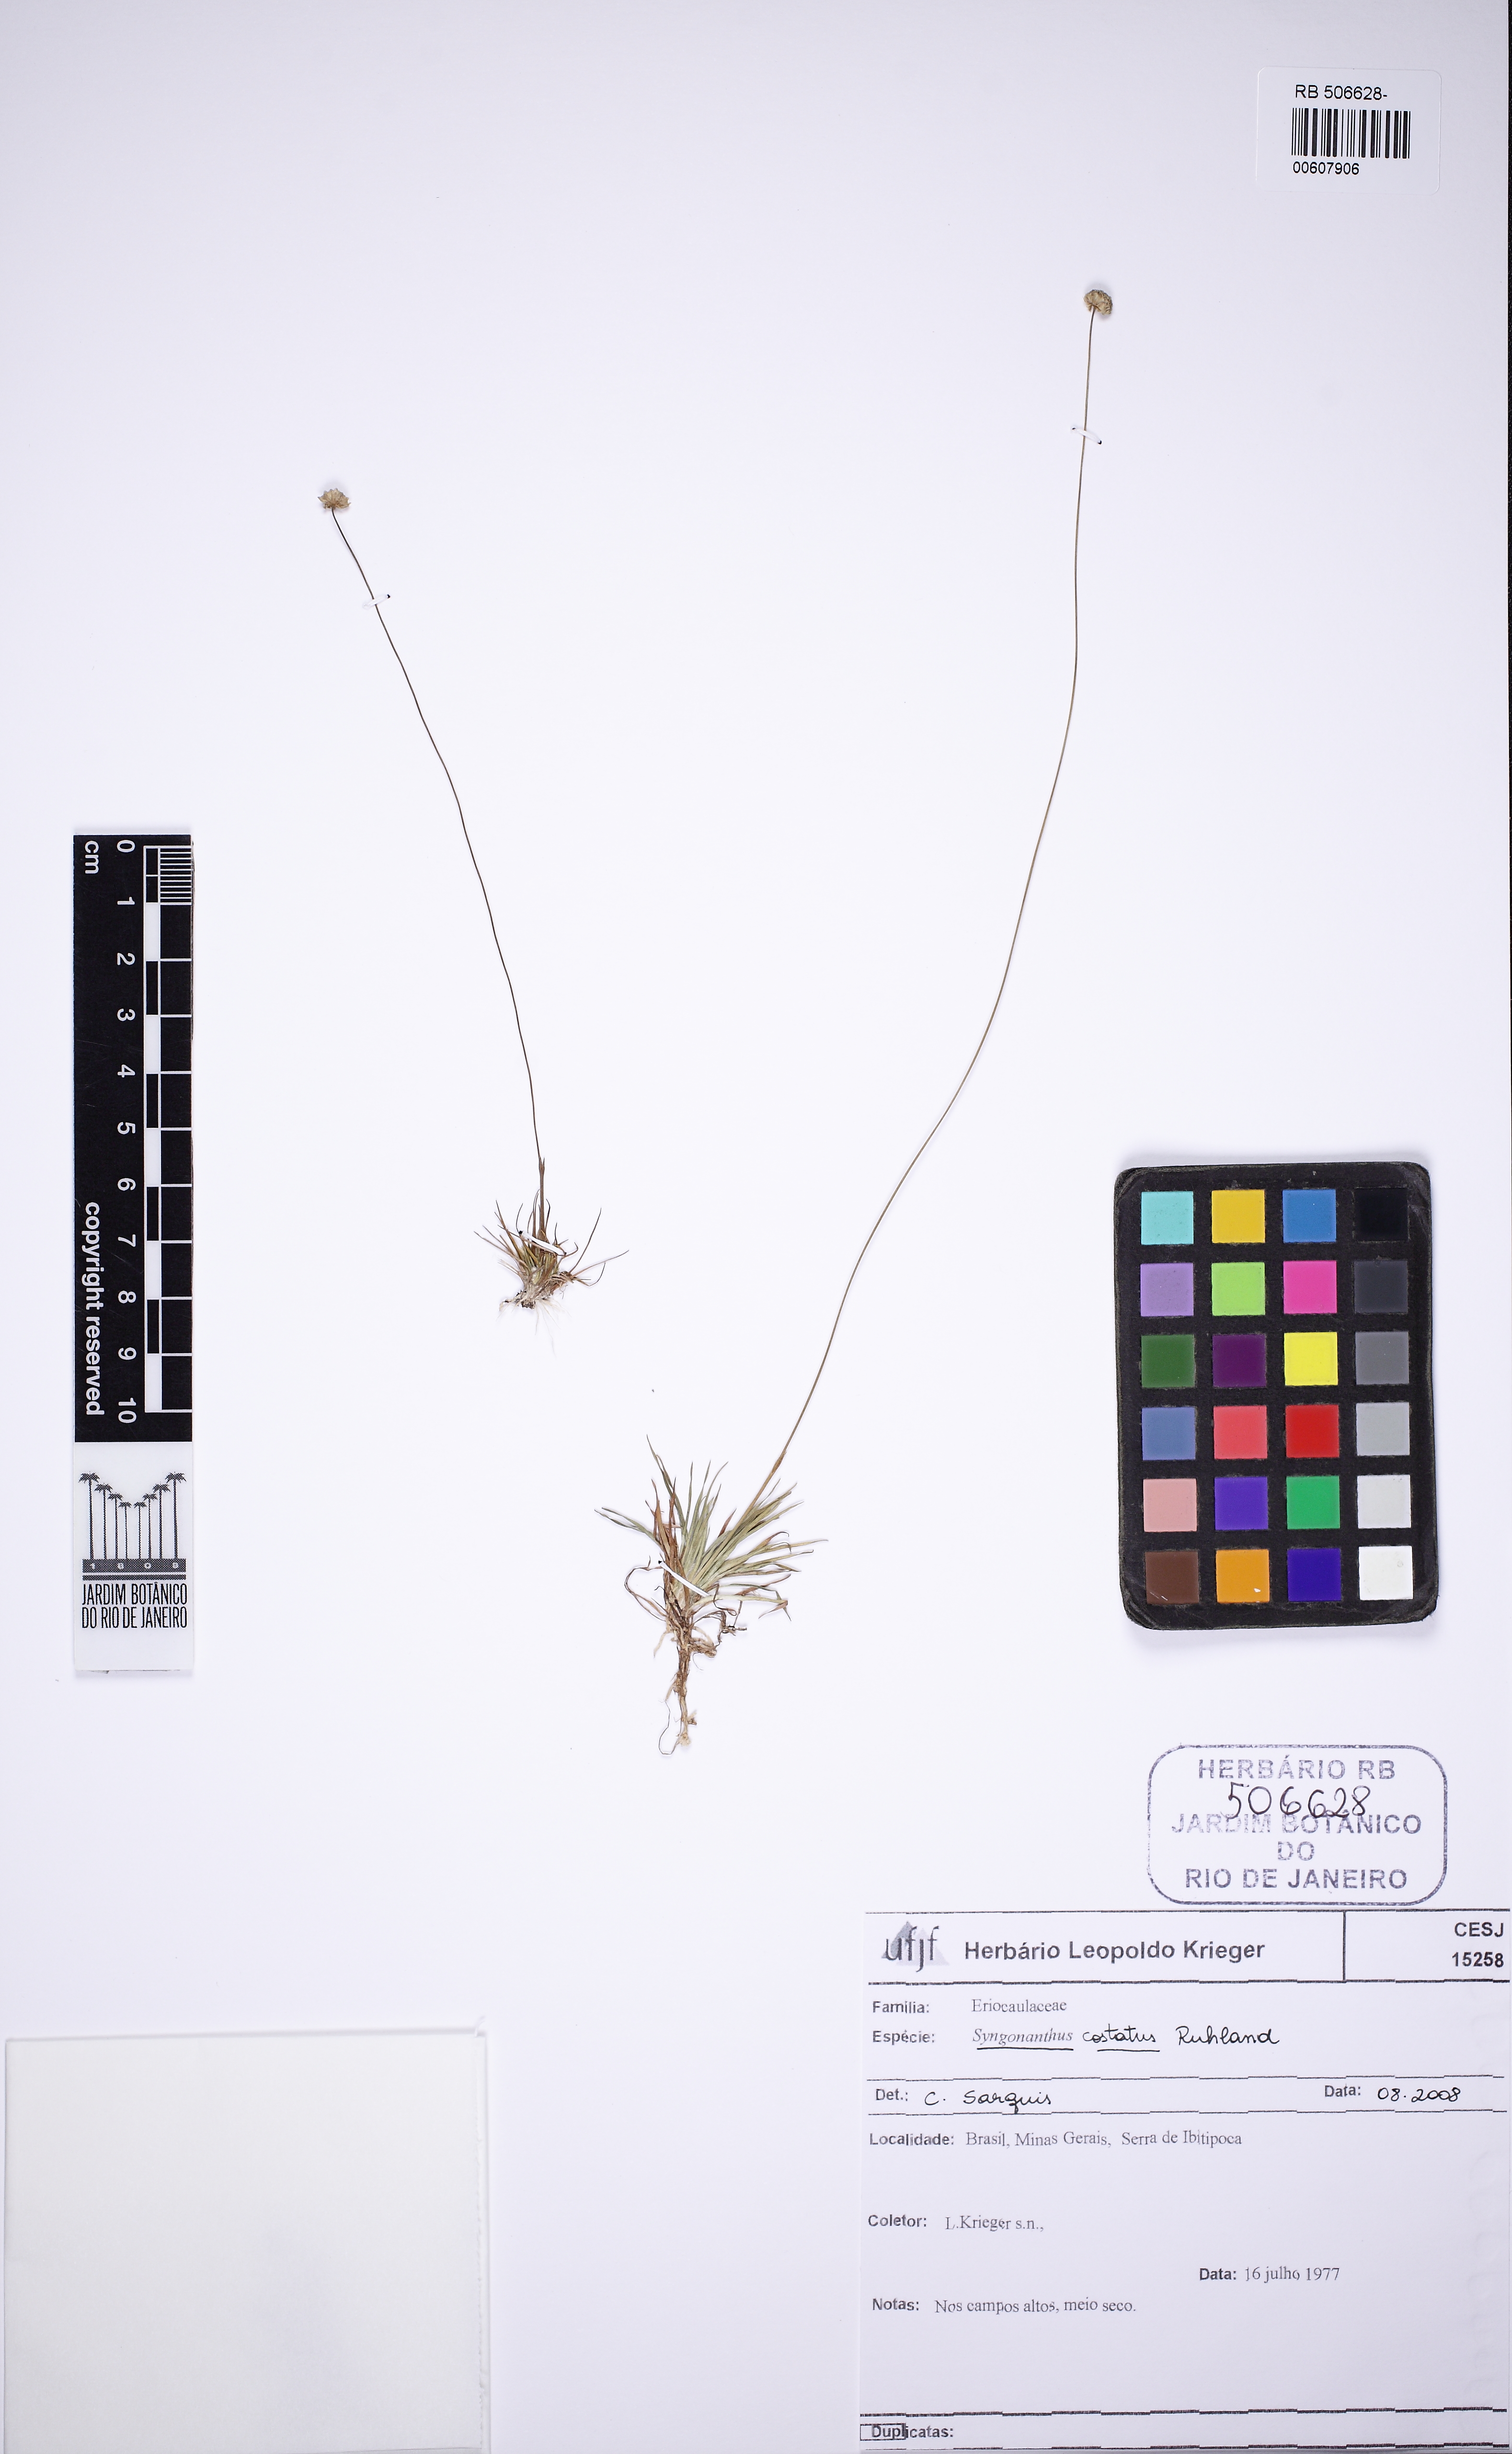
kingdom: Plantae
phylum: Tracheophyta
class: Liliopsida
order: Poales
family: Eriocaulaceae
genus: Syngonanthus
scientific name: Syngonanthus costatus
